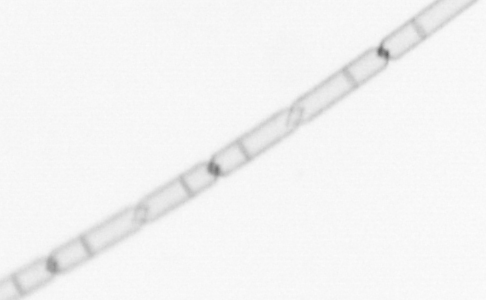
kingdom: Chromista
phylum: Ochrophyta
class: Bacillariophyceae
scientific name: Bacillariophyceae
